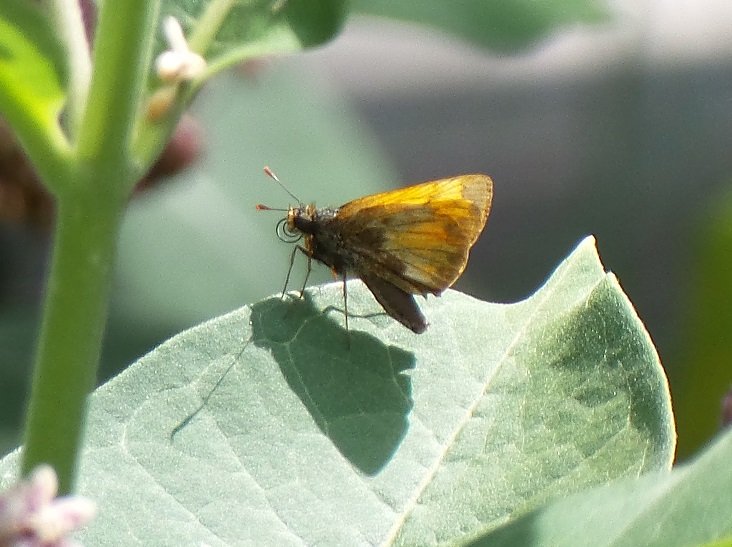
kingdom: Animalia
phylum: Arthropoda
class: Insecta
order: Lepidoptera
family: Hesperiidae
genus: Lon
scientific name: Lon hobomok
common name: Hobomok Skipper
